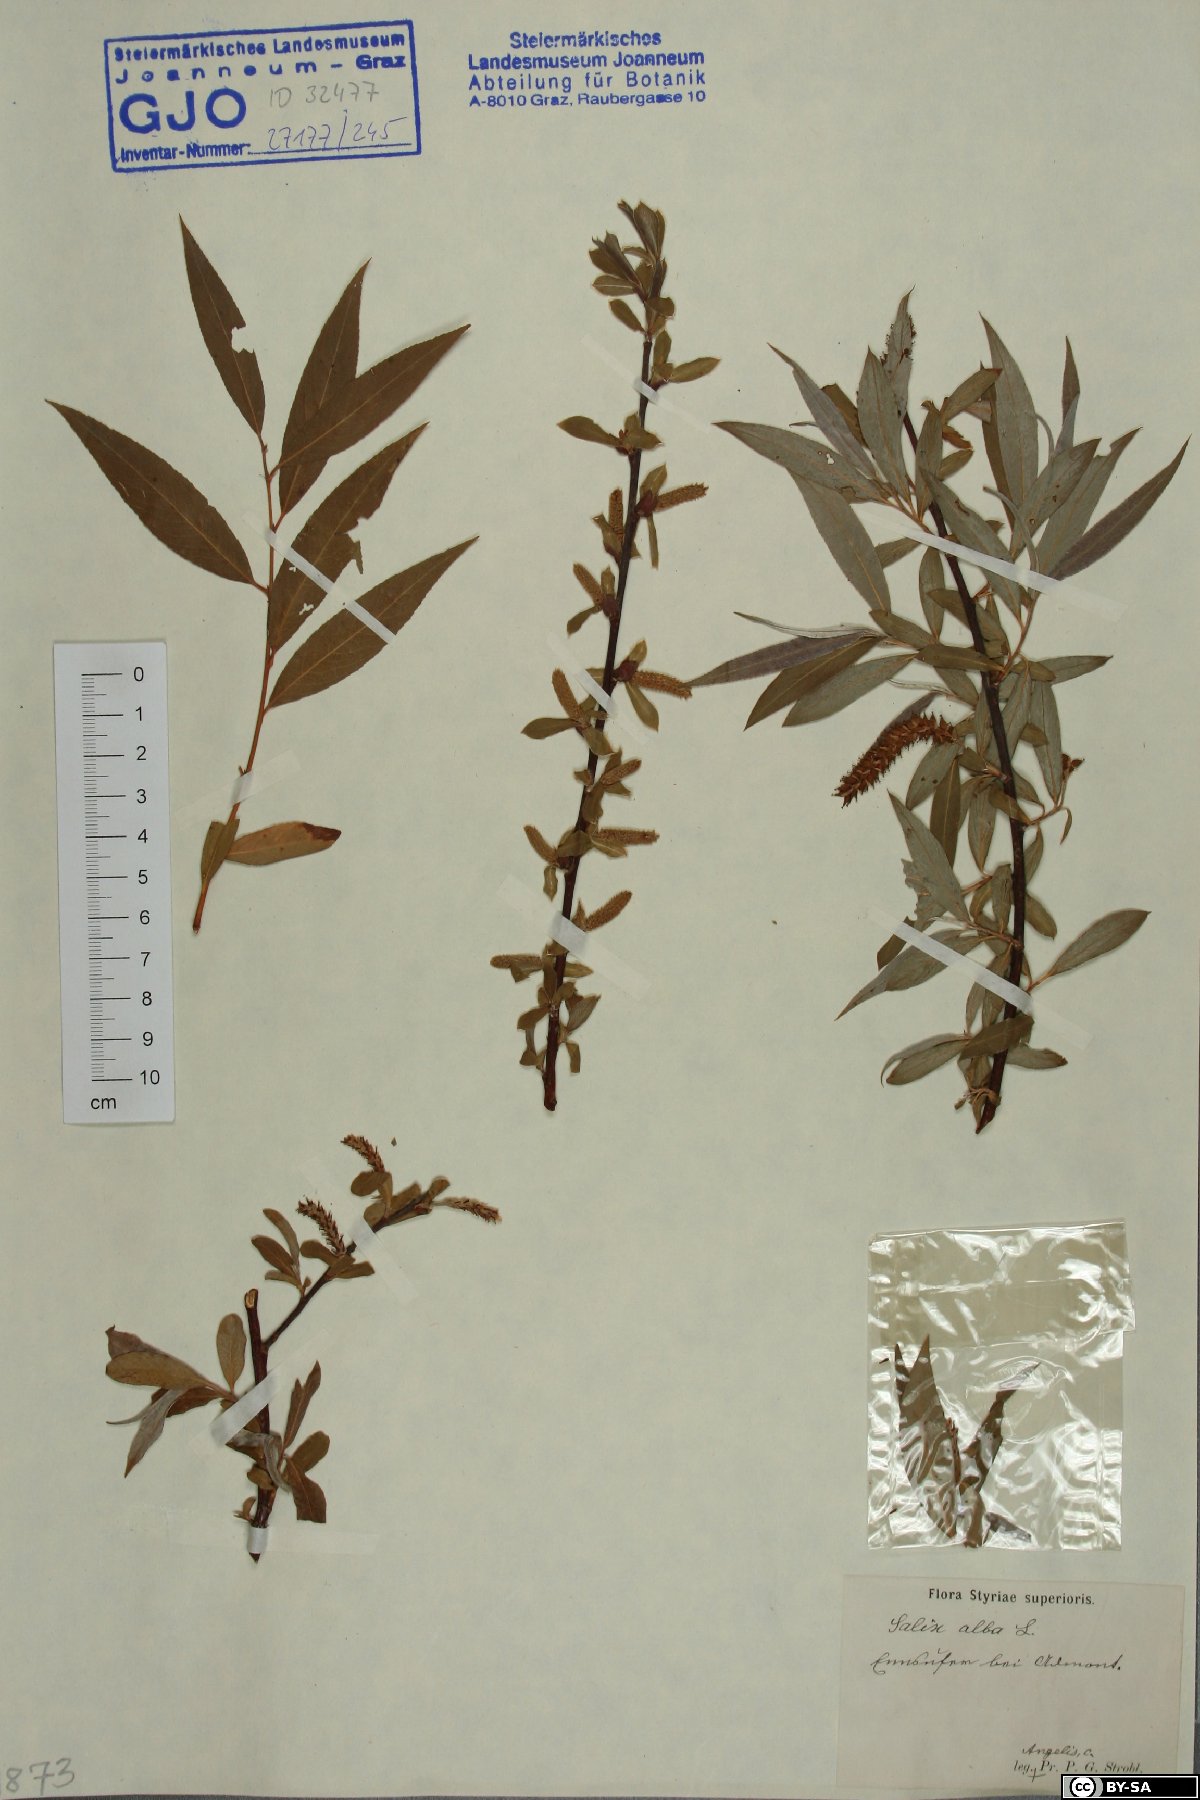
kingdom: Plantae
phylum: Tracheophyta
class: Magnoliopsida
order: Malpighiales
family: Salicaceae
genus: Salix
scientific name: Salix alba
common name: White willow
